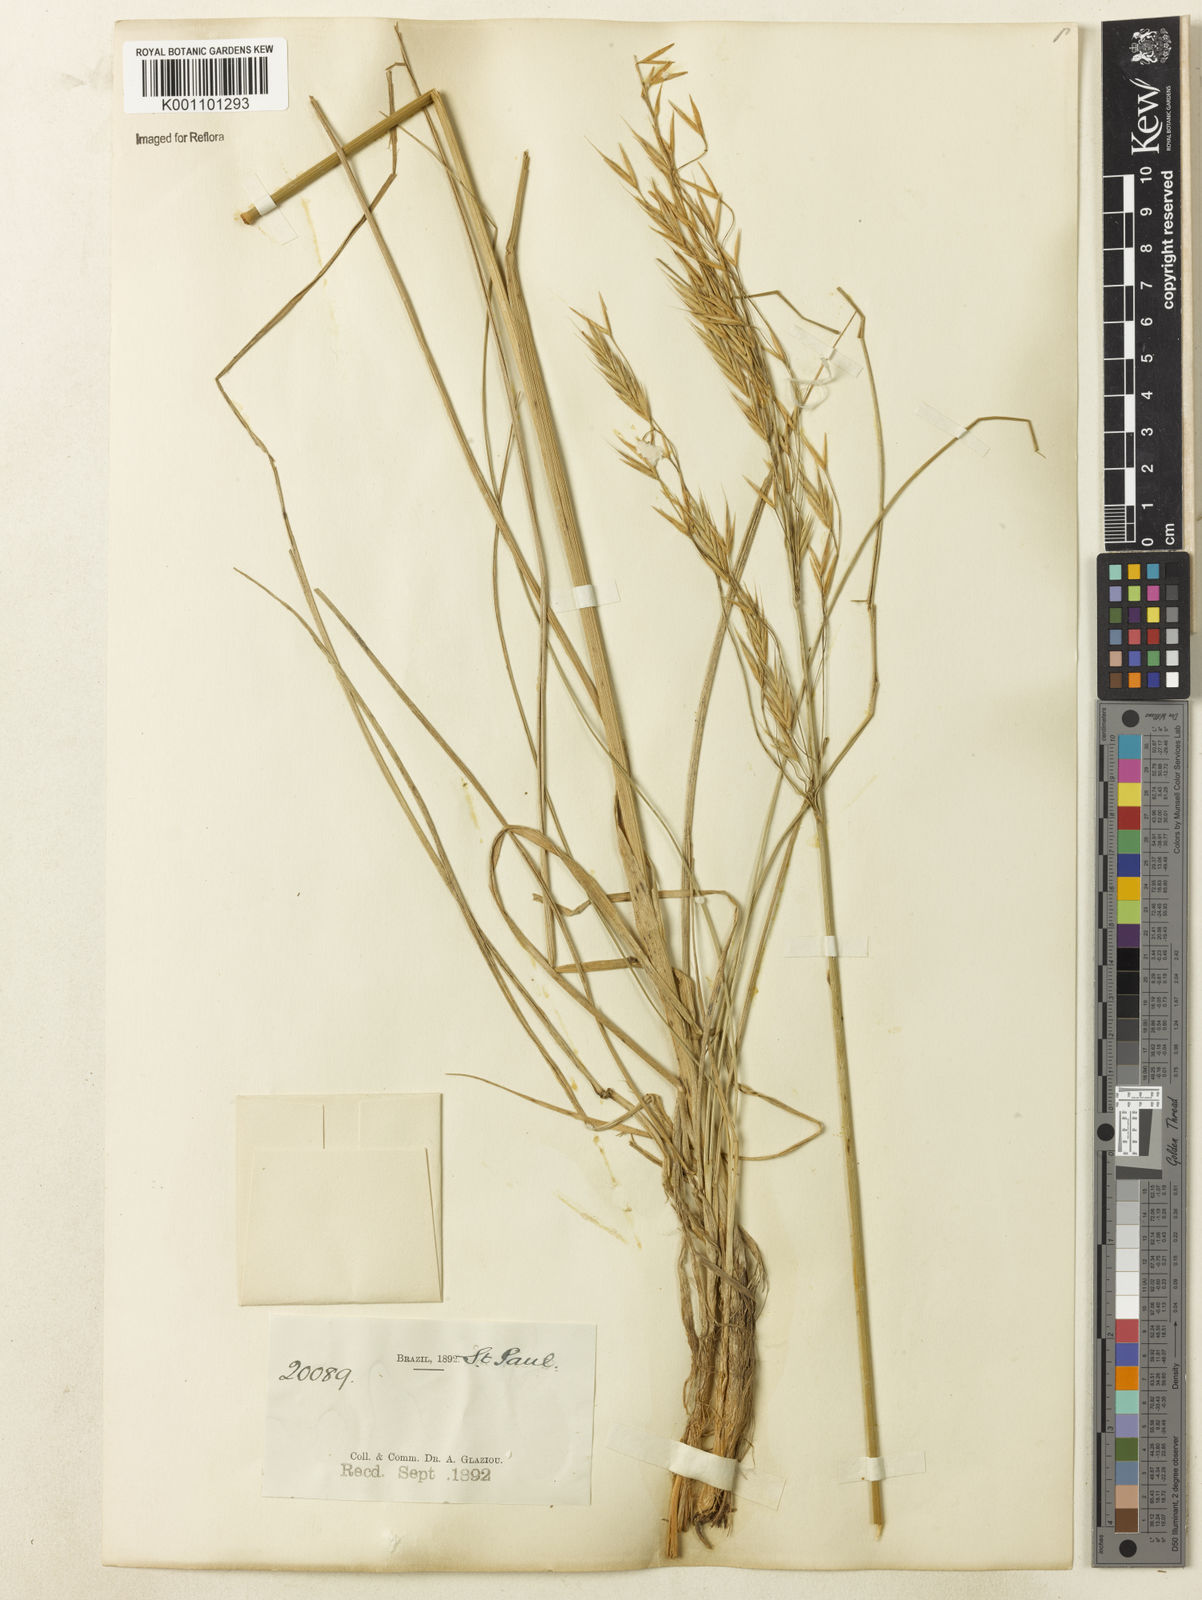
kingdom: Plantae
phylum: Tracheophyta
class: Liliopsida
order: Poales
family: Poaceae
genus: Bromus
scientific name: Bromus auleticus
